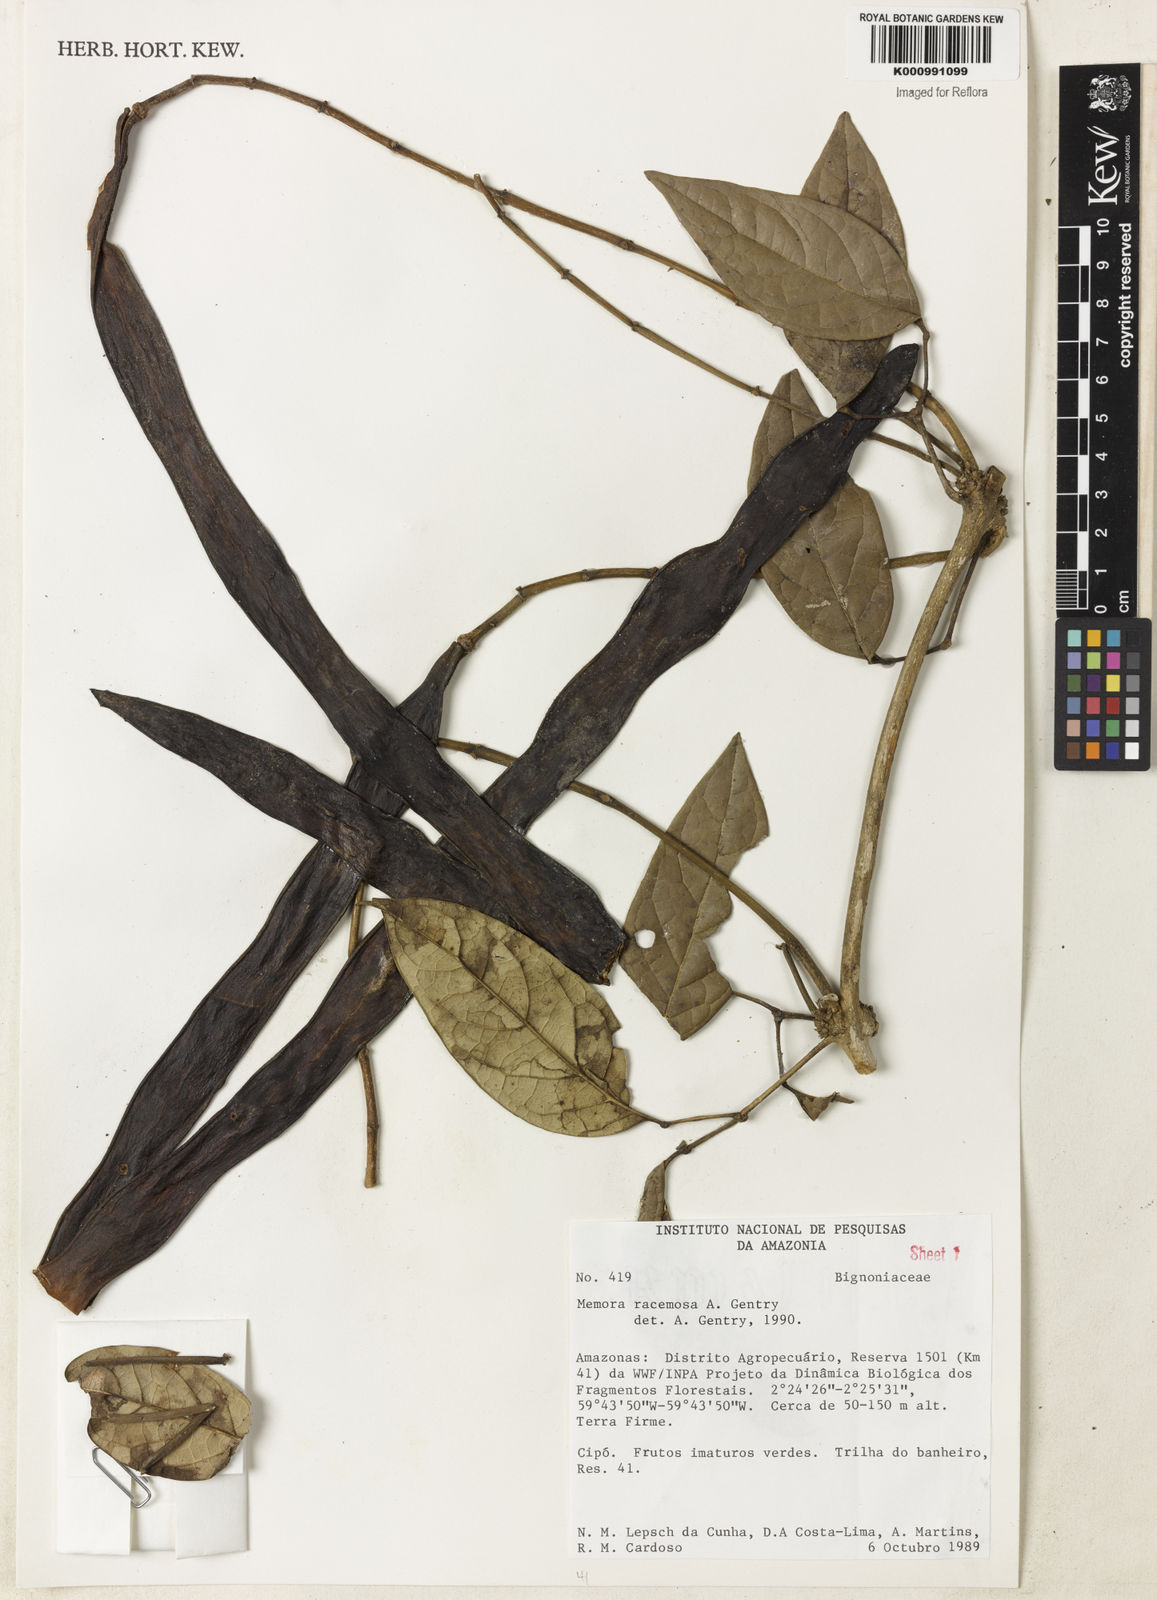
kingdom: Plantae
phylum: Tracheophyta
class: Magnoliopsida
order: Lamiales
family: Bignoniaceae
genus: Adenocalymma
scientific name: Adenocalymma racemosum
